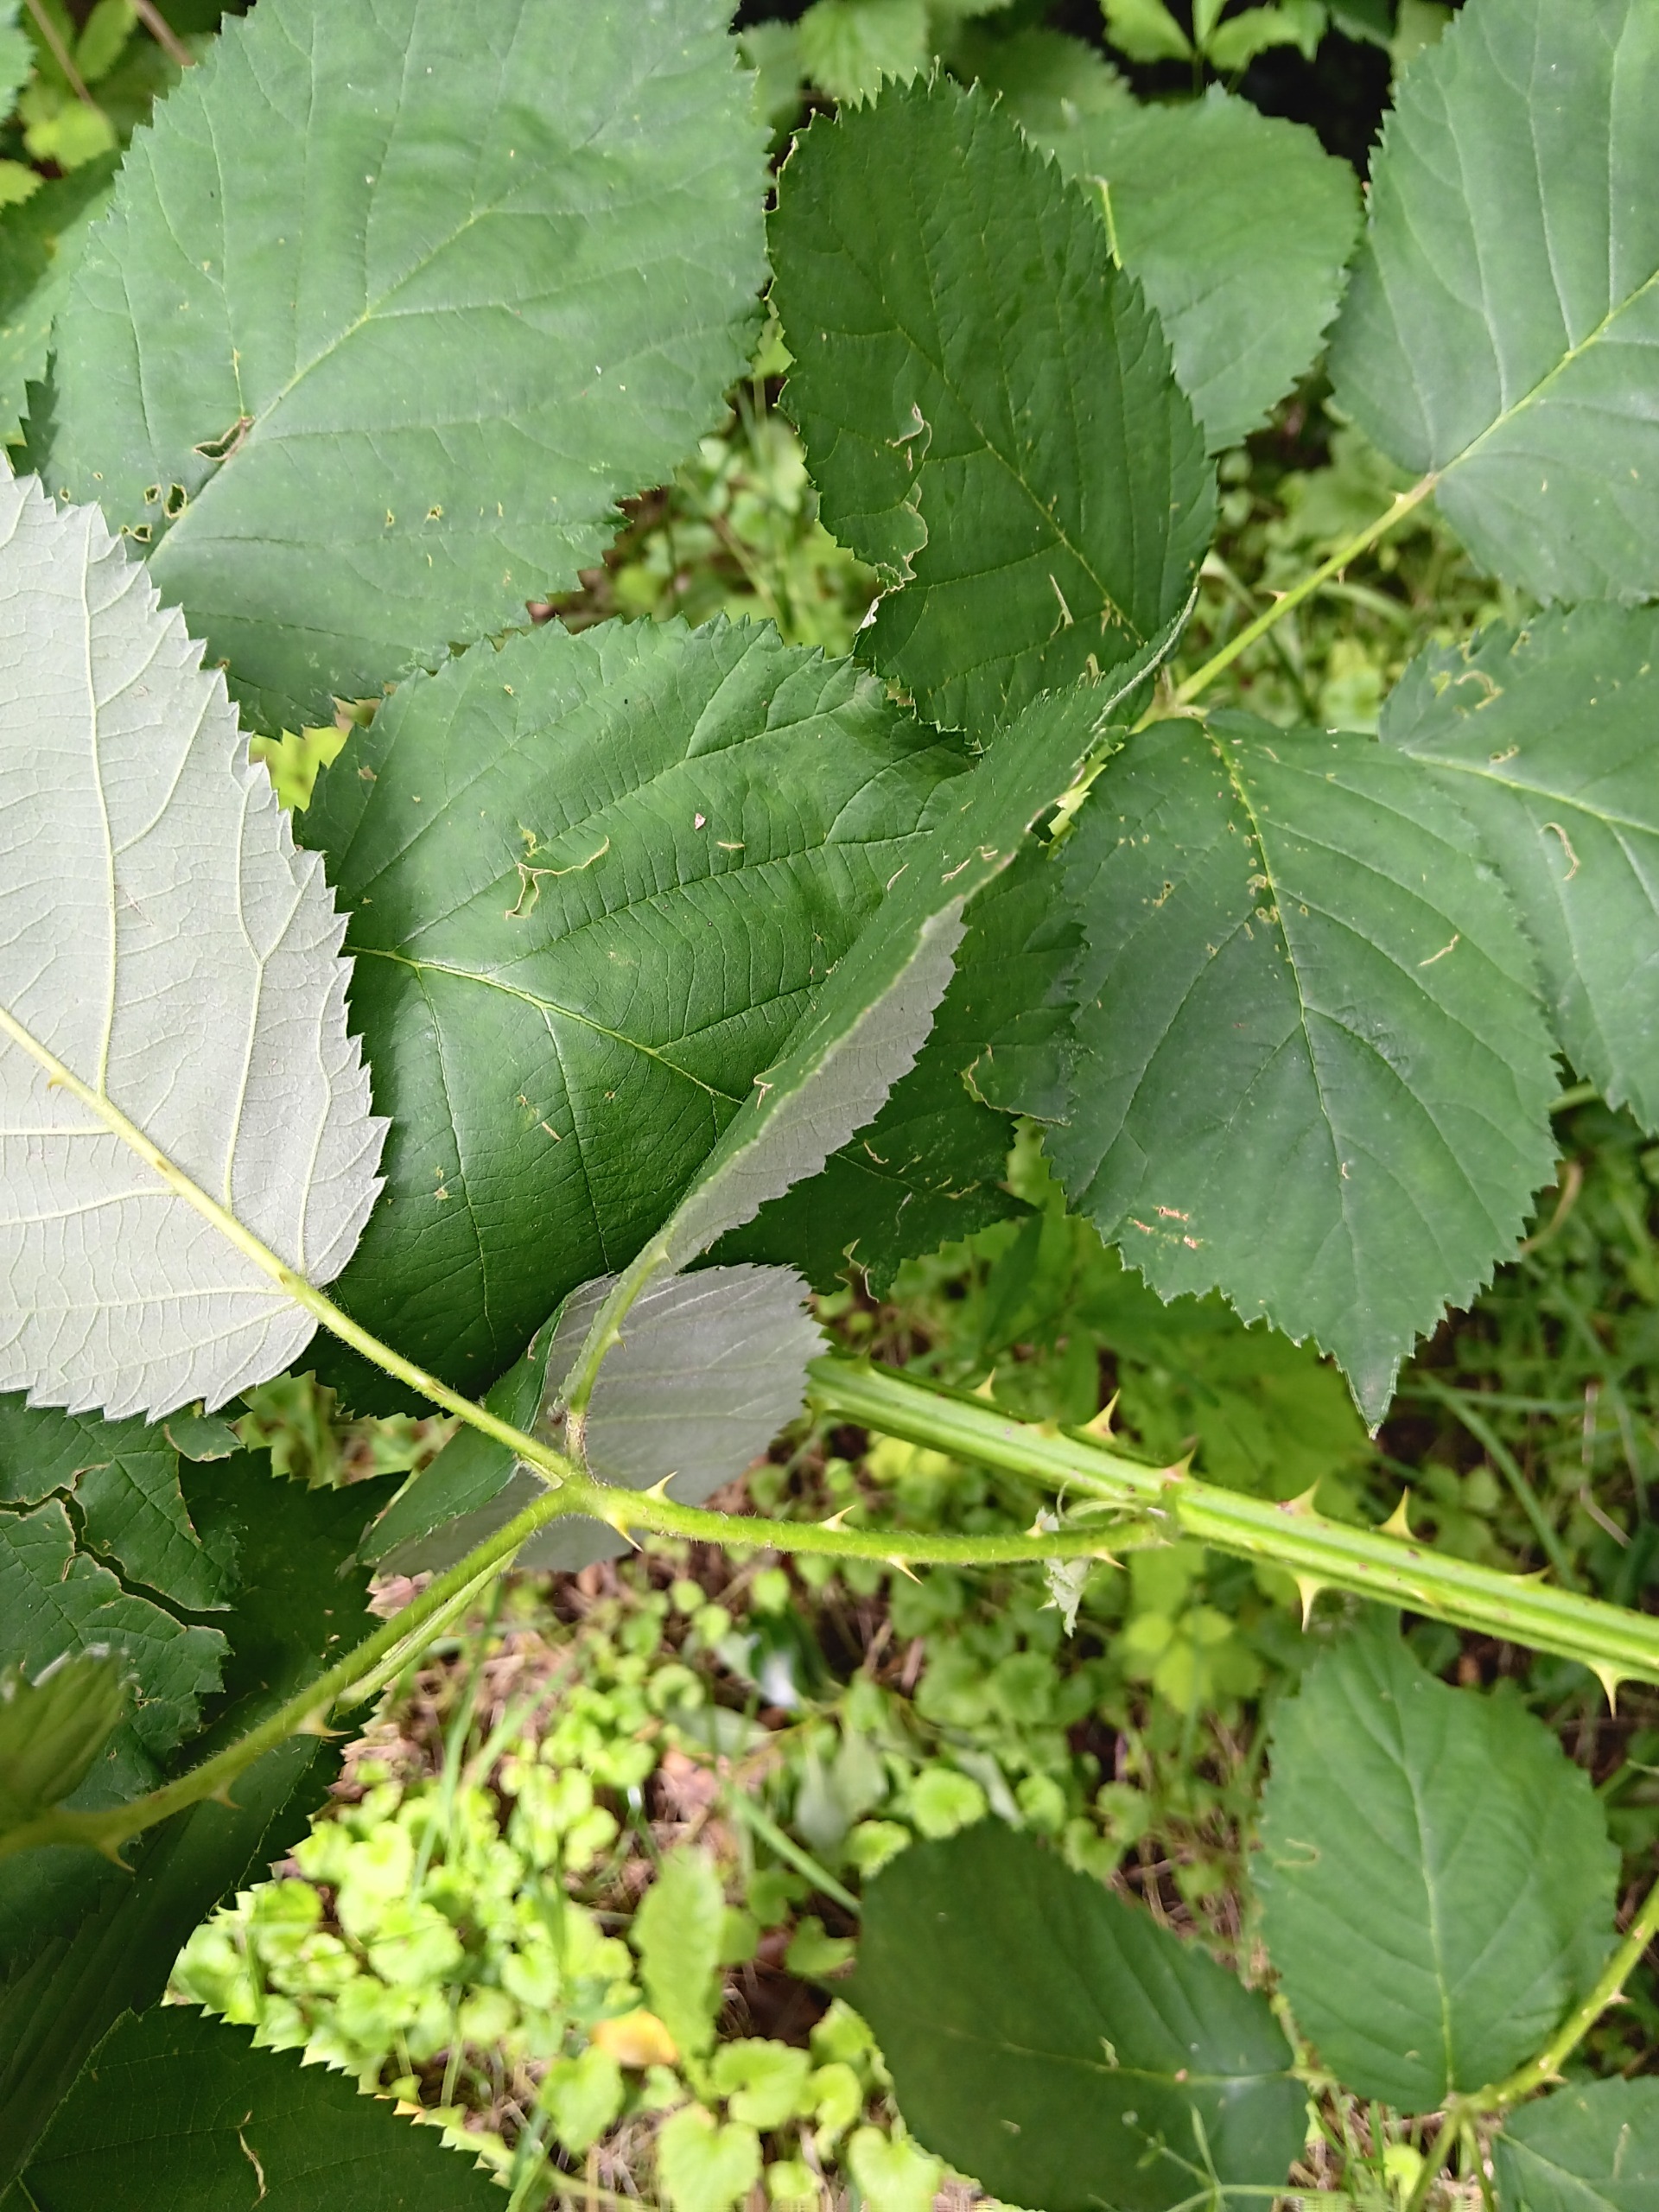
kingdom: Plantae
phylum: Tracheophyta
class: Magnoliopsida
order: Rosales
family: Rosaceae
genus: Rubus
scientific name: Rubus armeniacus
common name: Armensk brombær
